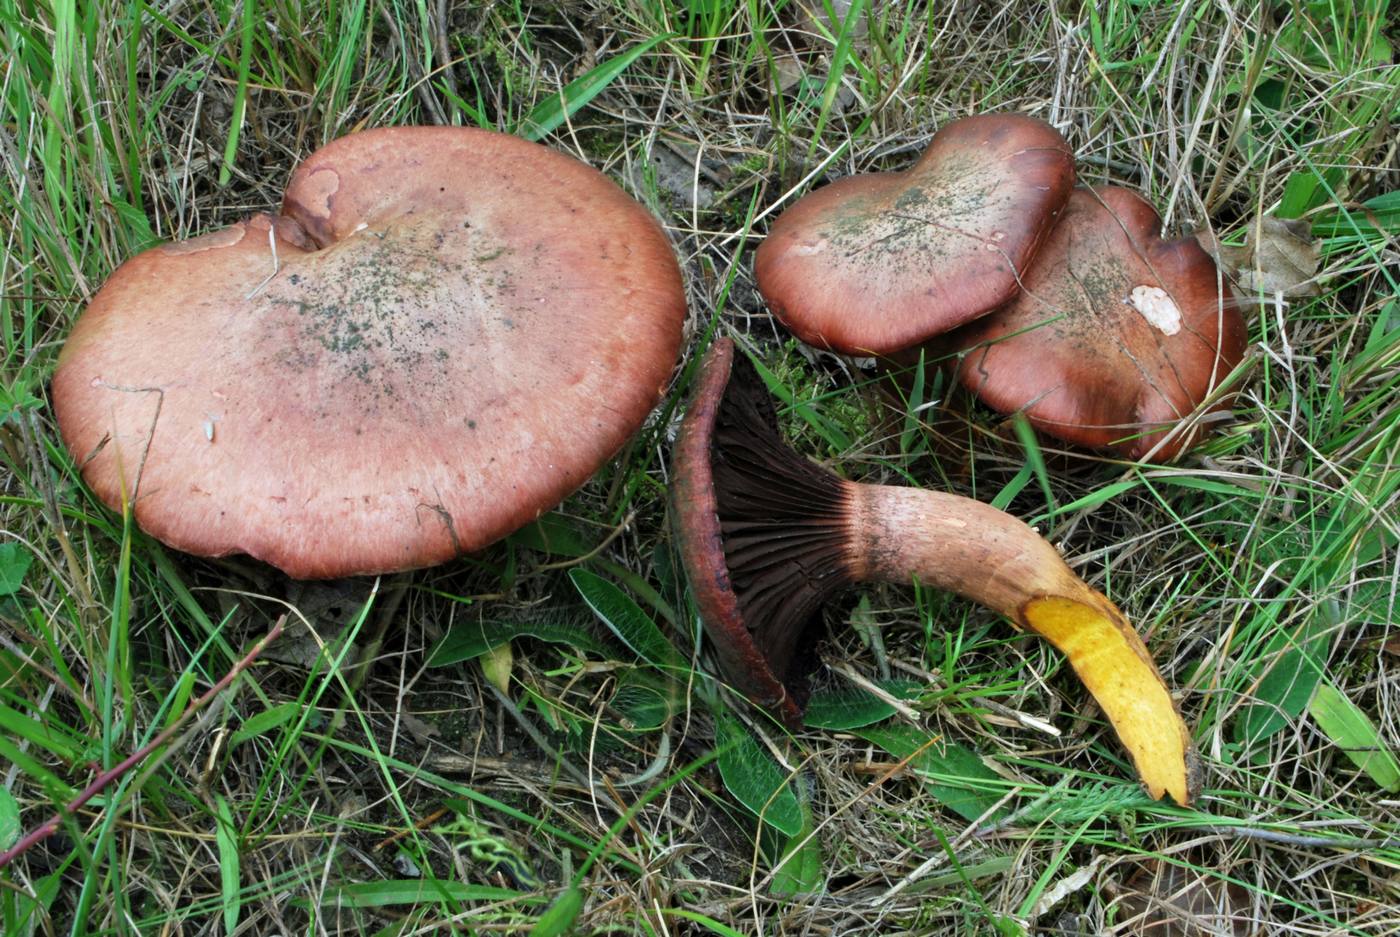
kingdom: Fungi
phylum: Basidiomycota
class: Agaricomycetes
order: Boletales
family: Gomphidiaceae
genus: Chroogomphus
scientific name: Chroogomphus rutilus
